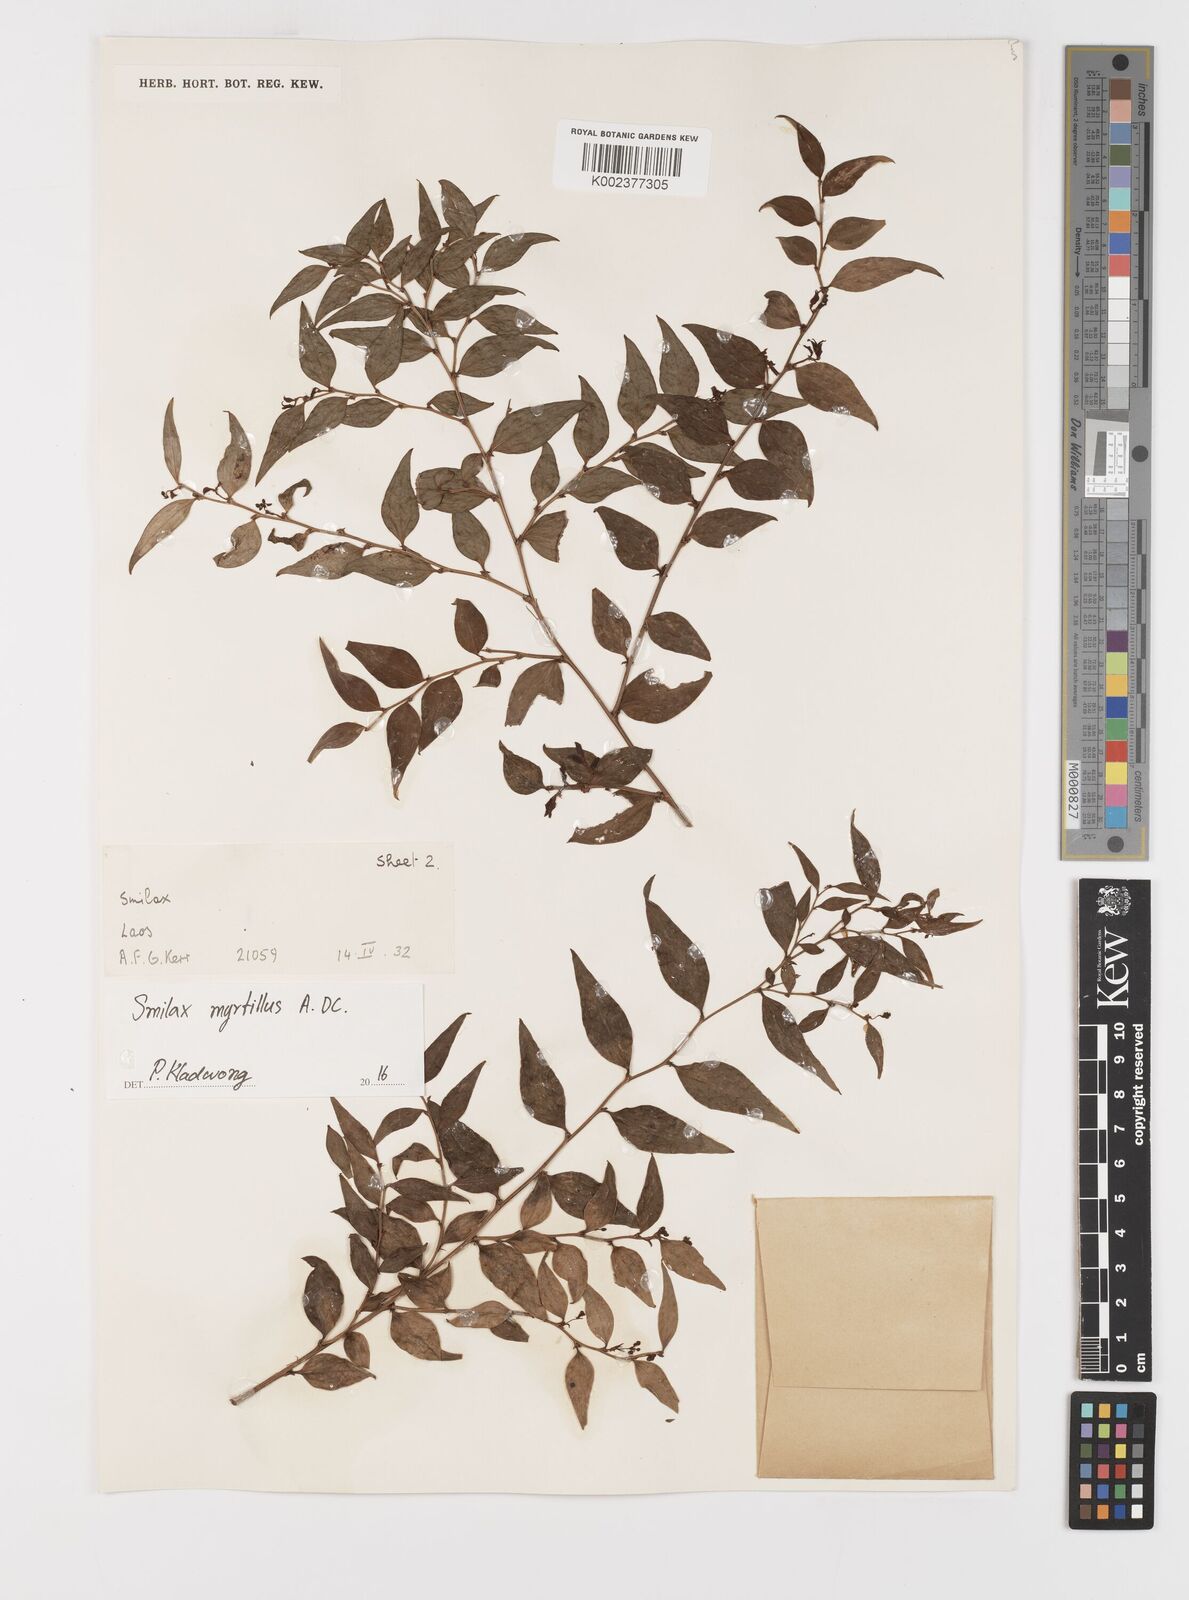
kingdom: Plantae
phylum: Tracheophyta
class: Liliopsida
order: Liliales
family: Smilacaceae
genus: Smilax
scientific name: Smilax myrtillus
